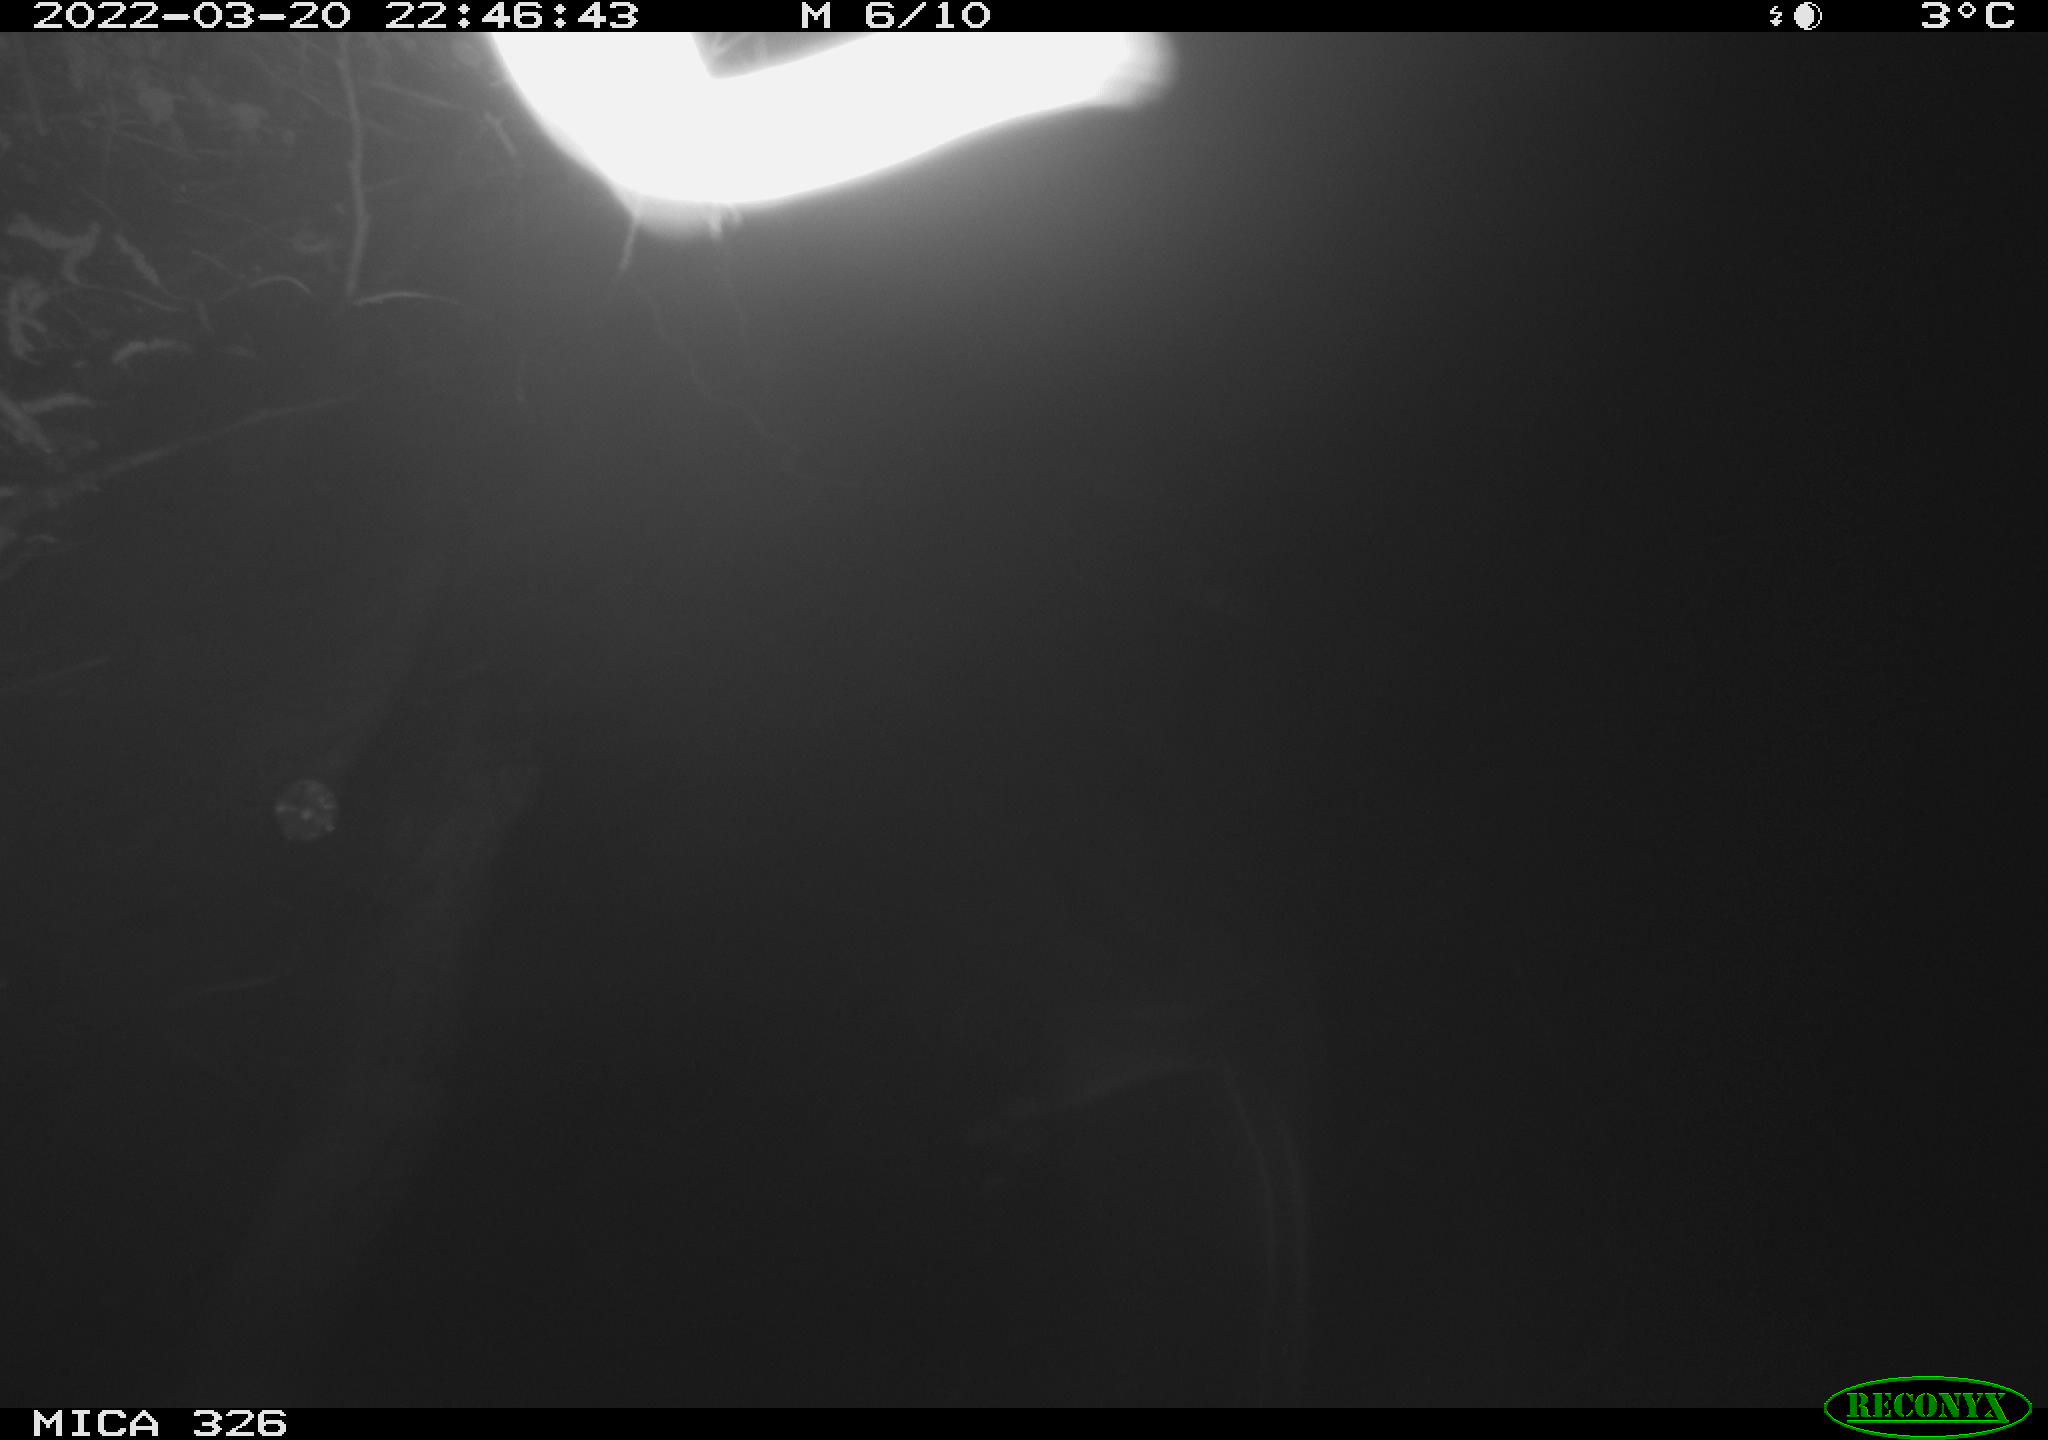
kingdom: Animalia
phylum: Chordata
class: Mammalia
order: Rodentia
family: Cricetidae
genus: Ondatra
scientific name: Ondatra zibethicus
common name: Muskrat
